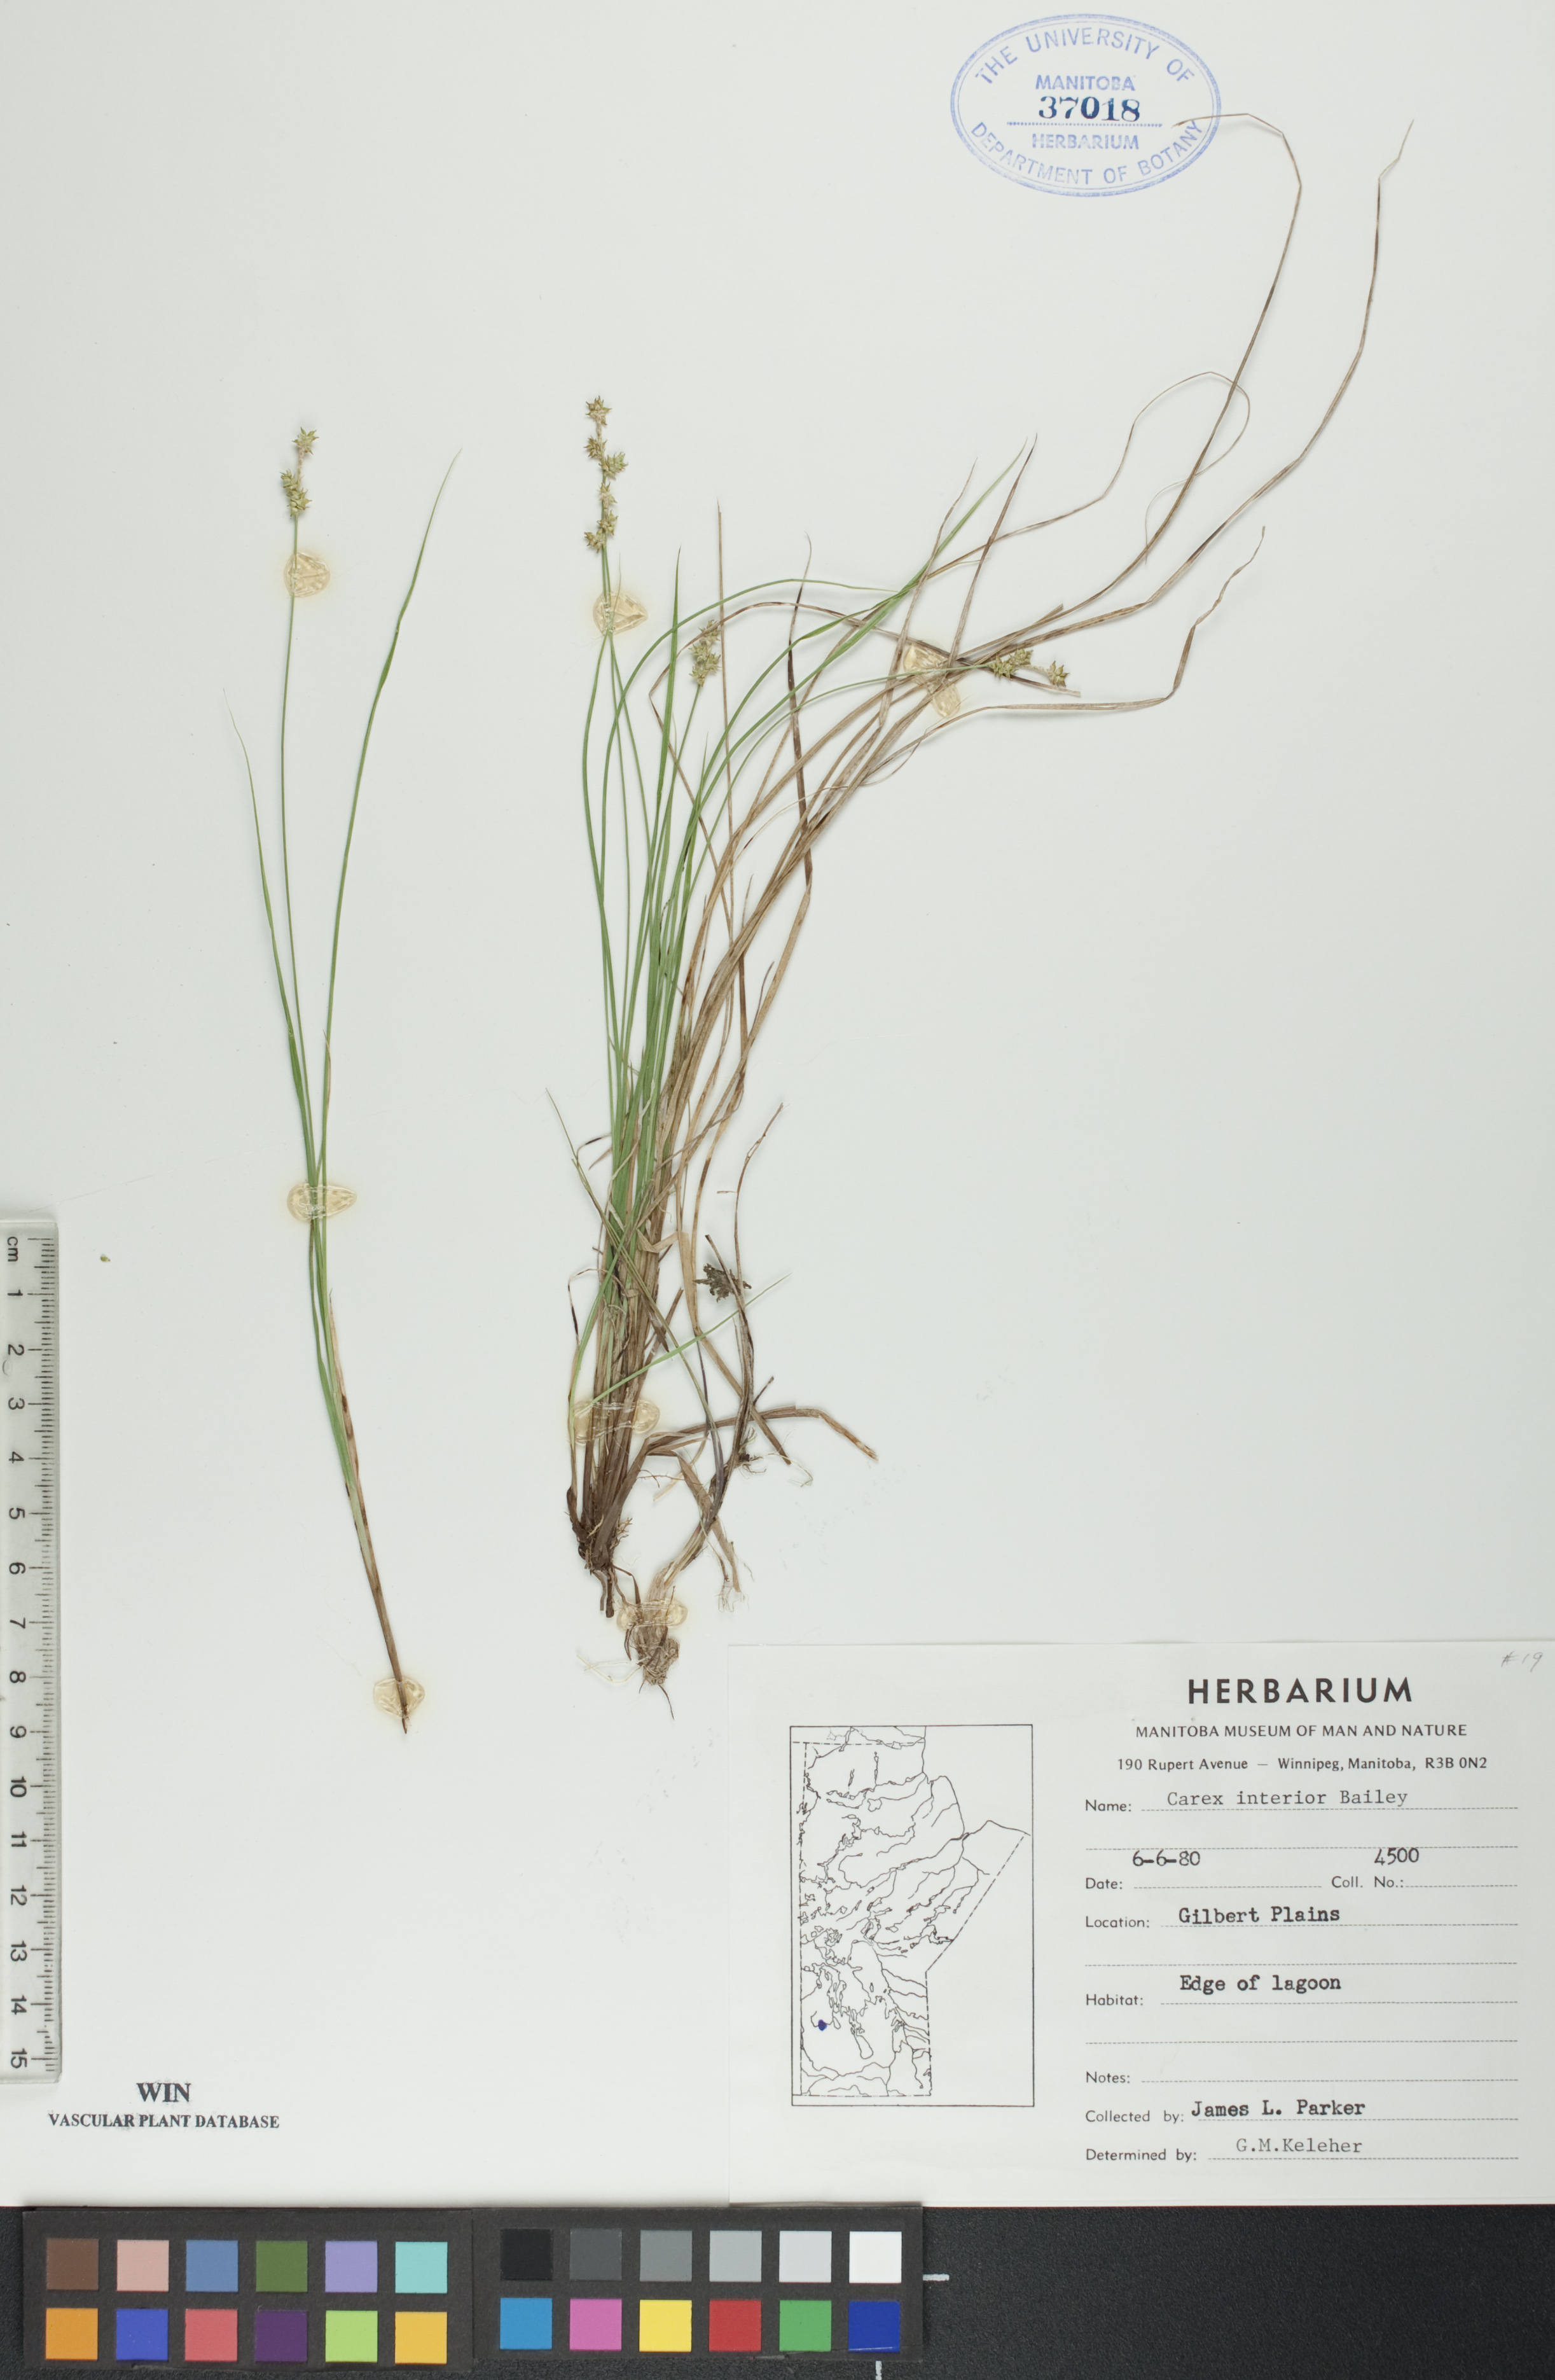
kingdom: Plantae
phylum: Tracheophyta
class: Liliopsida
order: Poales
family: Cyperaceae
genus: Carex
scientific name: Carex interior
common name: Inland sedge
